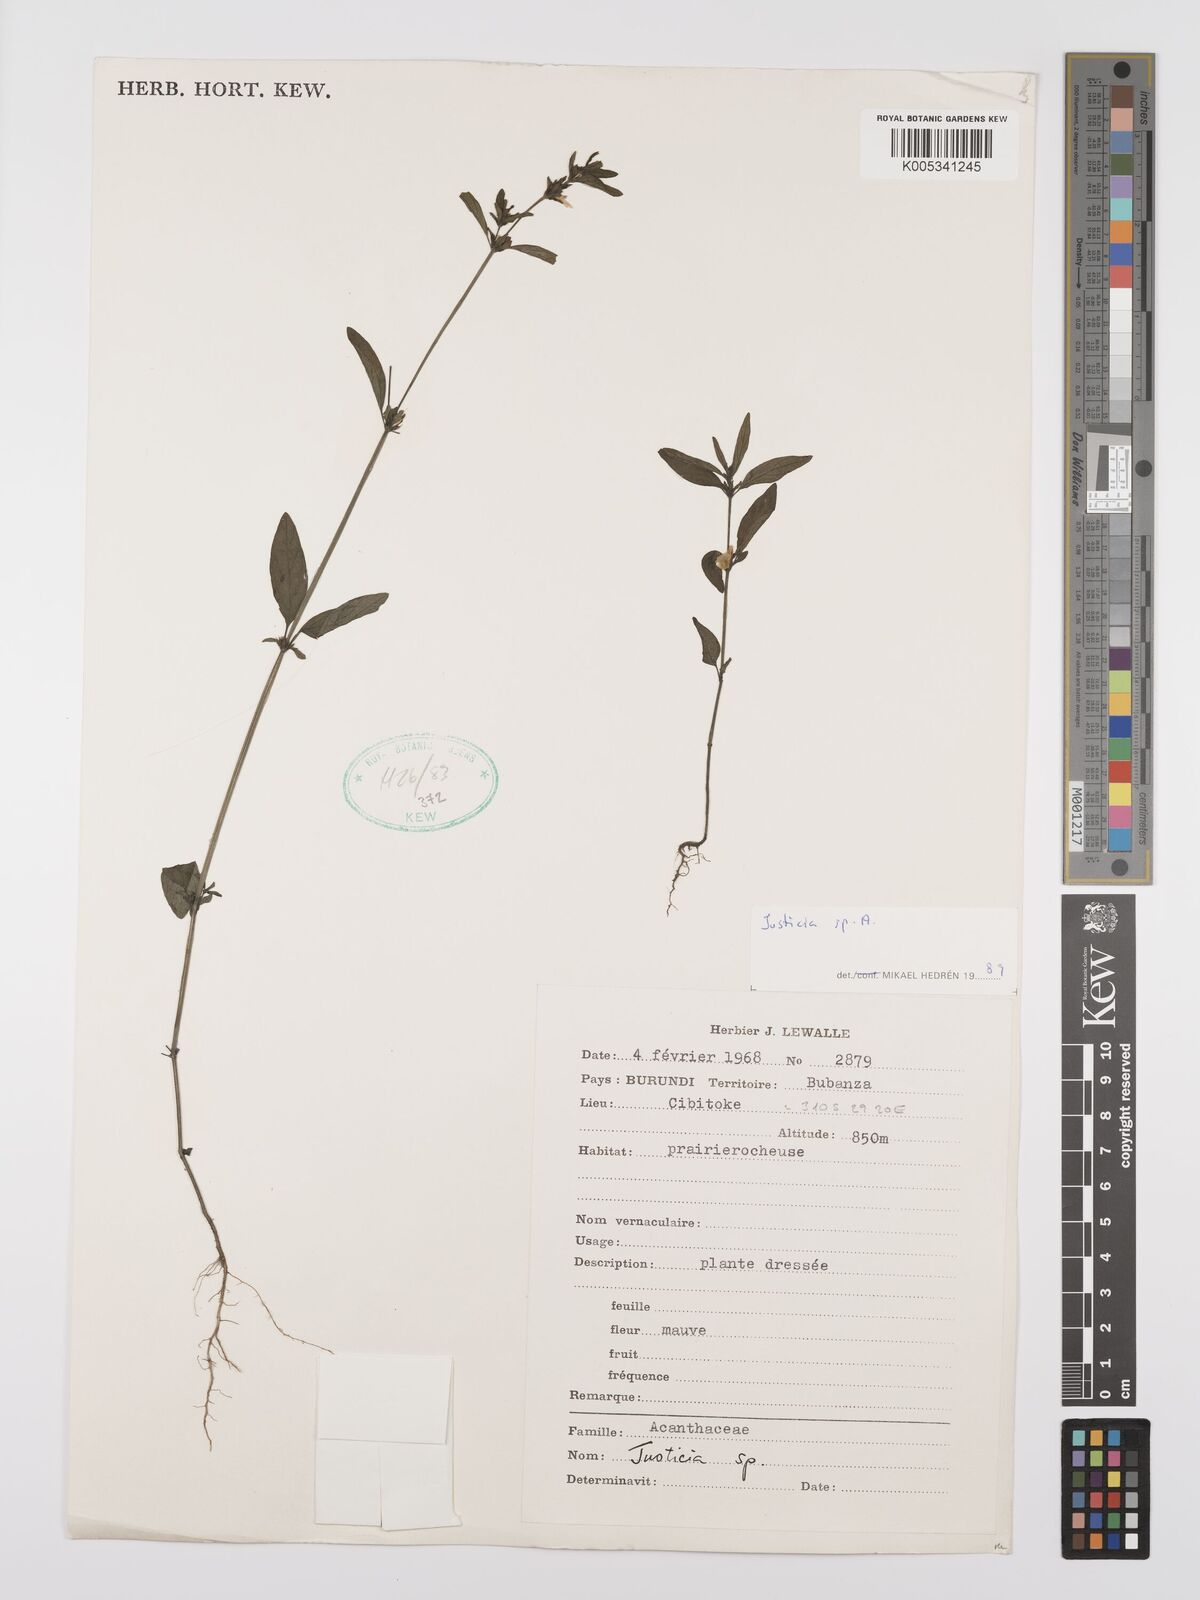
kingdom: Plantae
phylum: Tracheophyta
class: Magnoliopsida
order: Lamiales
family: Acanthaceae
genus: Justicia
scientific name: Justicia boaleri
